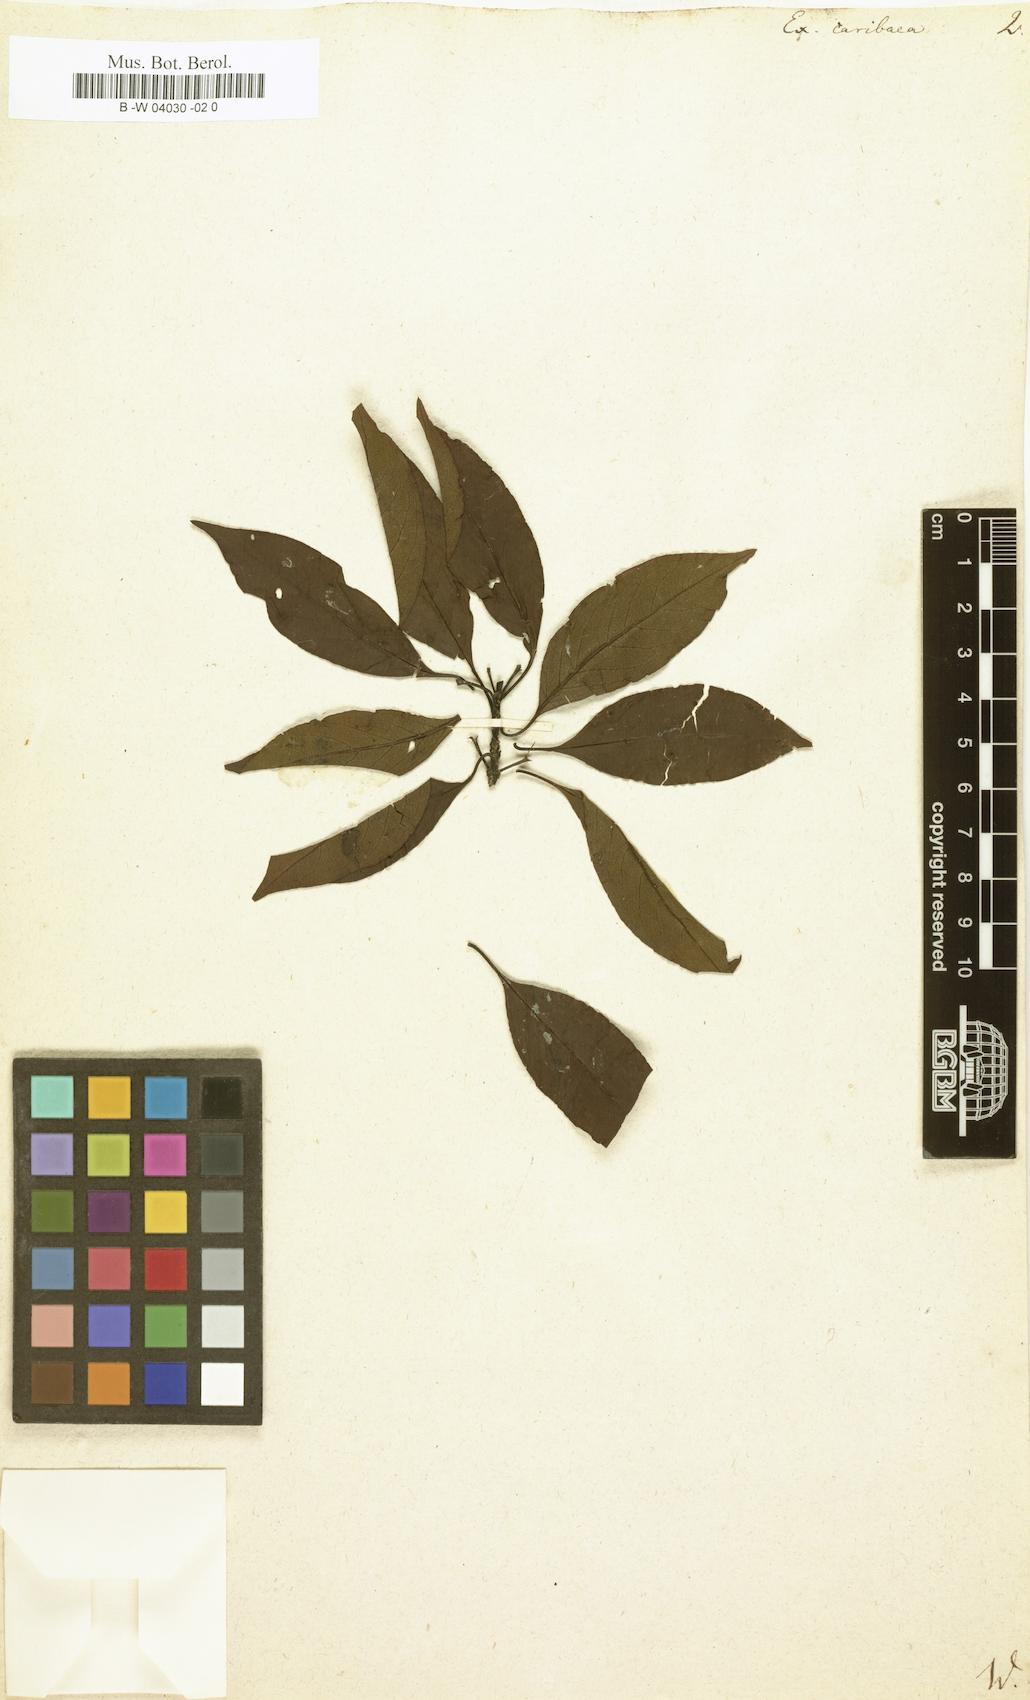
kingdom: Plantae
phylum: Tracheophyta
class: Magnoliopsida
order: Gentianales
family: Rubiaceae
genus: Exostema
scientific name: Exostema caribaeum
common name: Princewood
